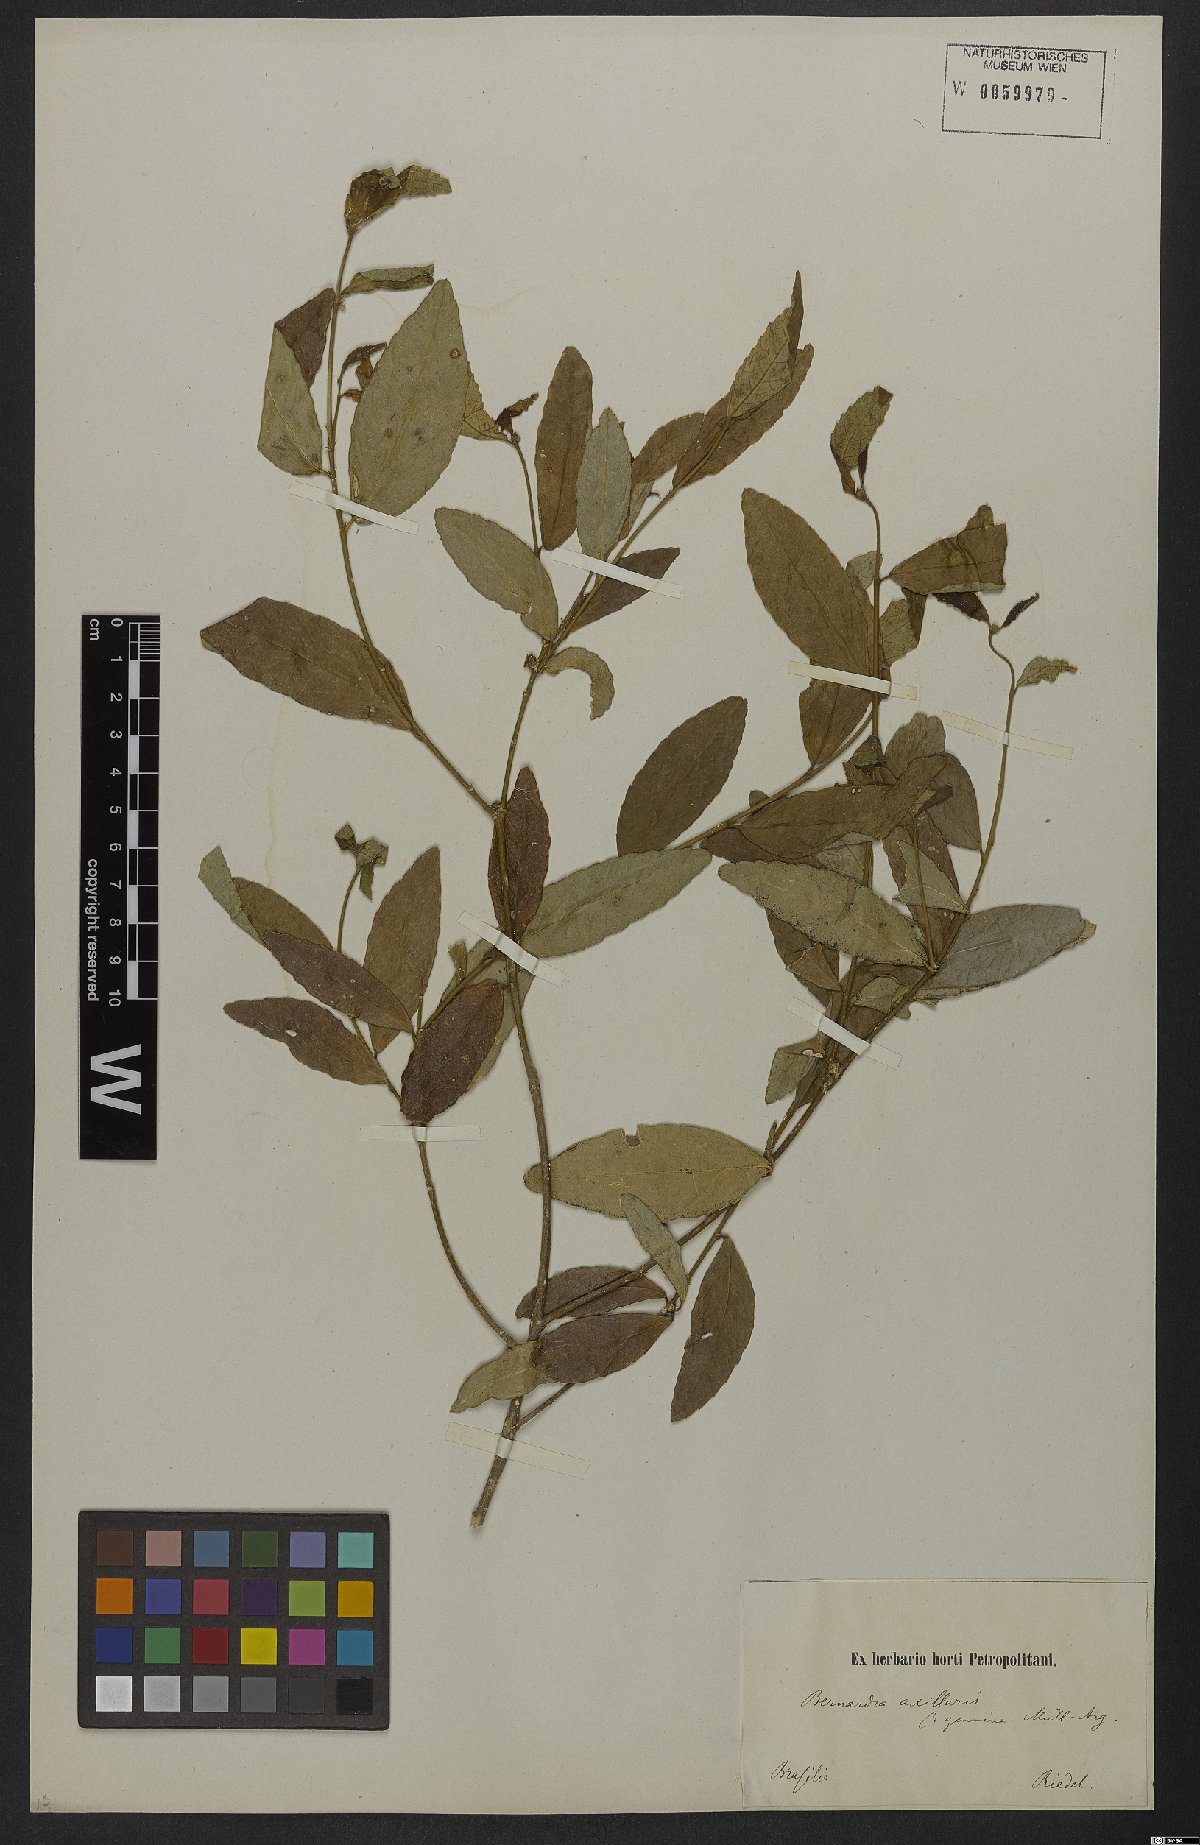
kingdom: Plantae
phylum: Tracheophyta
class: Magnoliopsida
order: Malpighiales
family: Euphorbiaceae
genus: Bernardia
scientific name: Bernardia axillaris
